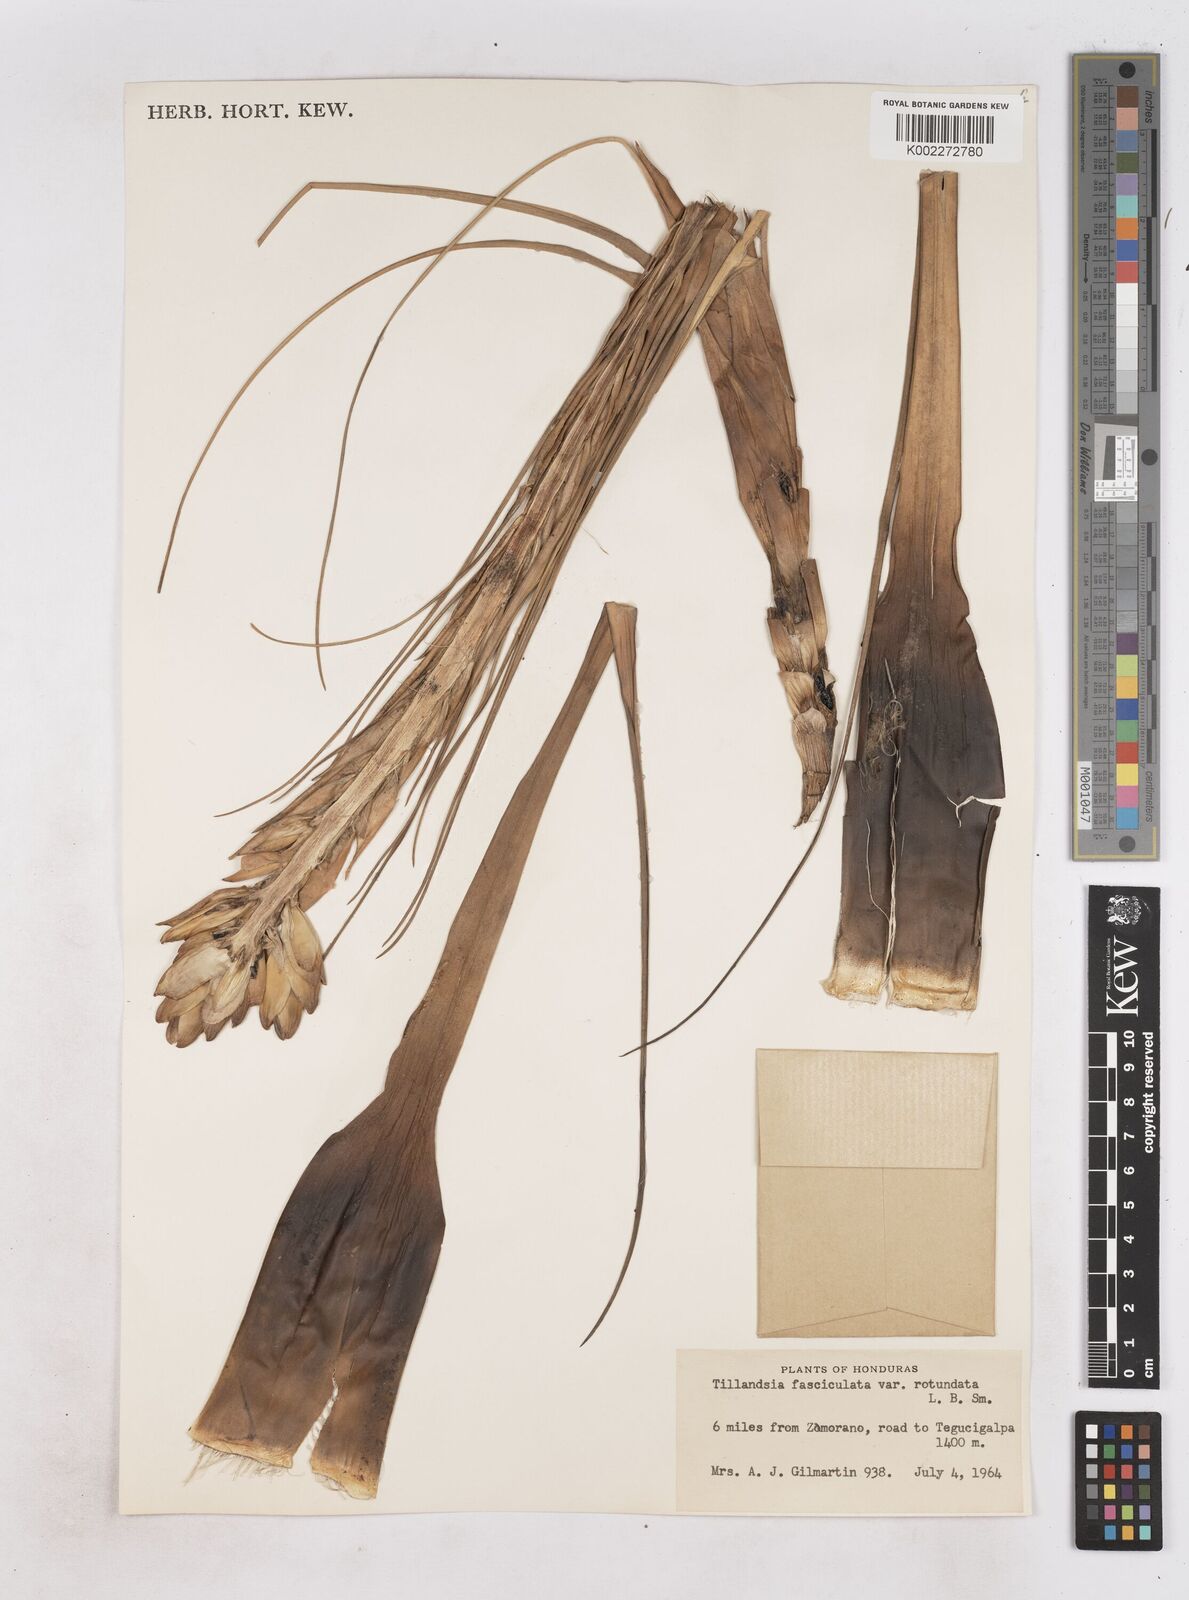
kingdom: Plantae
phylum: Tracheophyta
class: Liliopsida
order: Poales
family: Bromeliaceae
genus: Tillandsia
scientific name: Tillandsia rotundata
